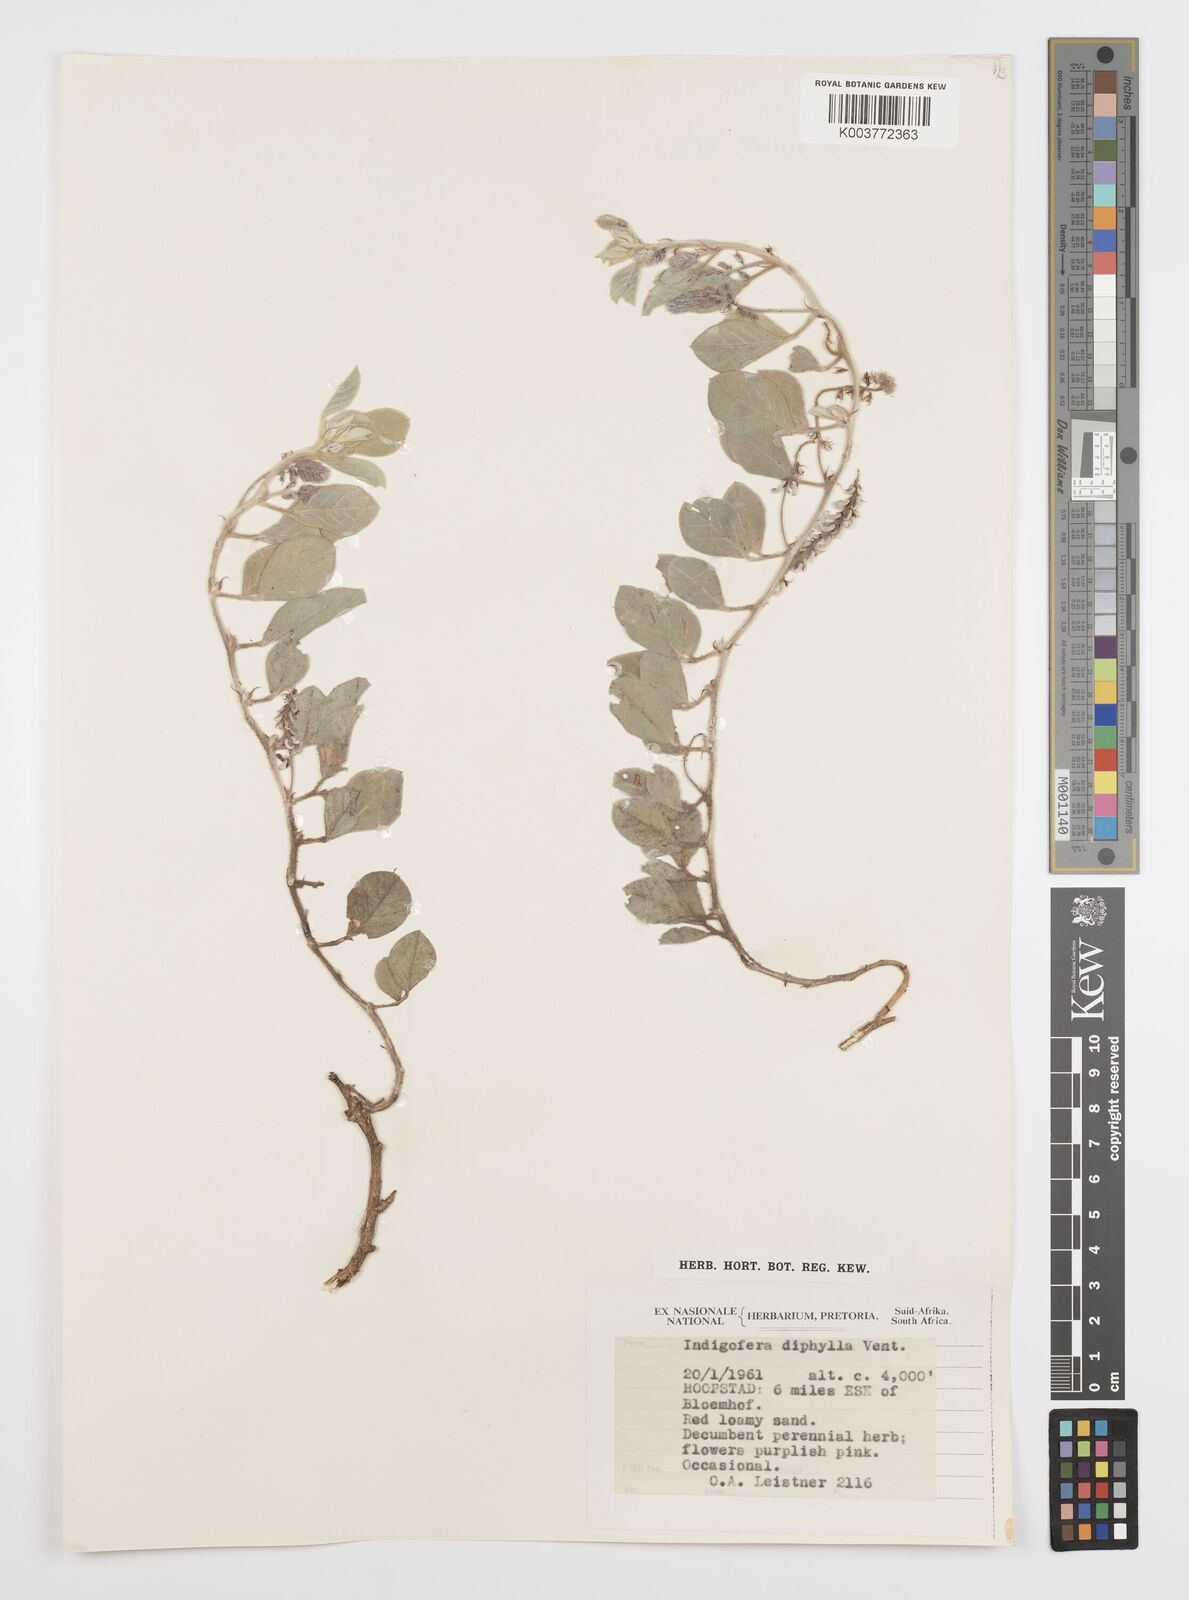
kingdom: Plantae
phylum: Tracheophyta
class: Magnoliopsida
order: Fabales
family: Fabaceae
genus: Indigofera
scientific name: Indigofera flavicans
